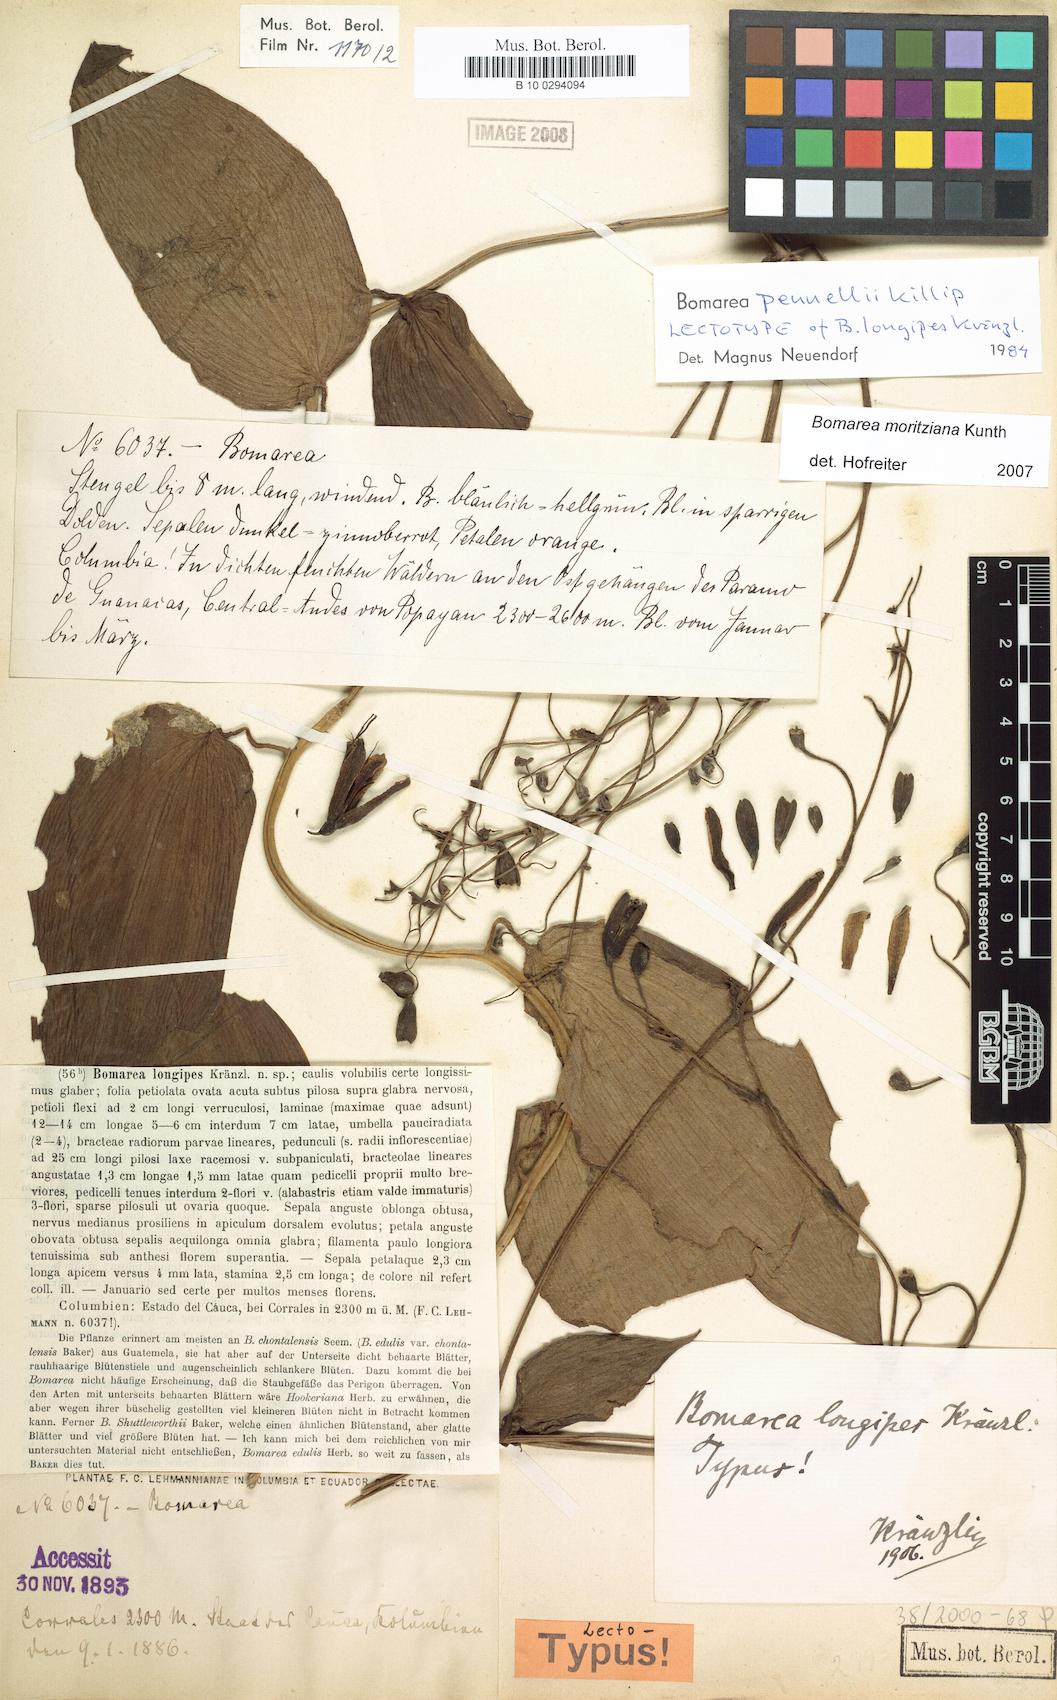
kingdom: Plantae
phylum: Tracheophyta
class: Liliopsida
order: Liliales
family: Alstroemeriaceae
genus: Bomarea
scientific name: Bomarea moritziana
